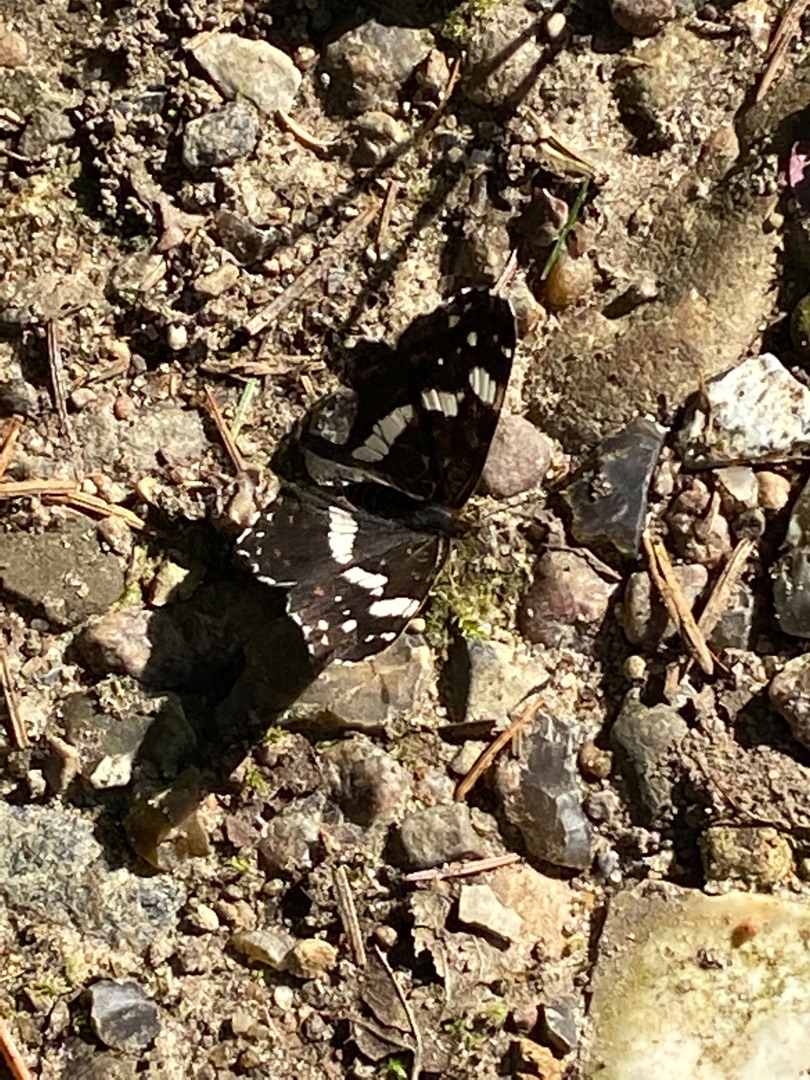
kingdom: Animalia
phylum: Arthropoda
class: Insecta
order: Lepidoptera
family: Nymphalidae
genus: Ladoga
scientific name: Ladoga camilla
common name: Hvid admiral
